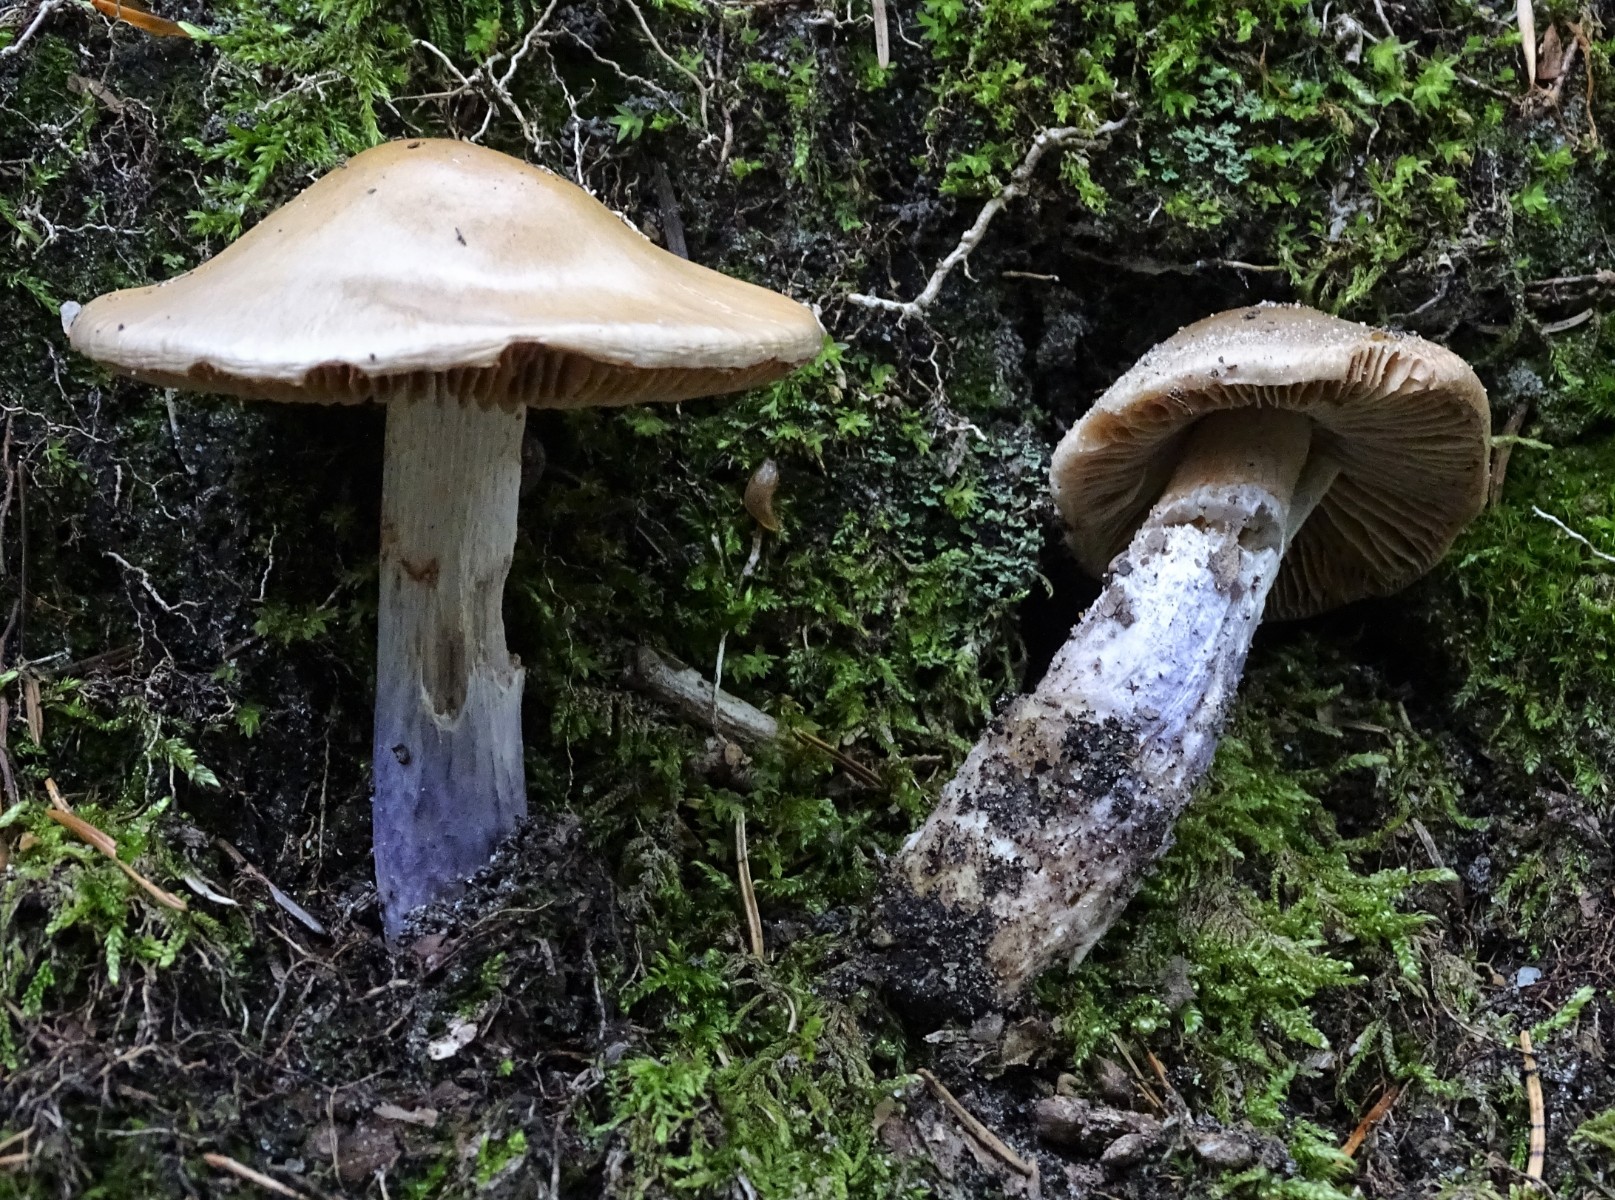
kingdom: Fungi
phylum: Basidiomycota
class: Agaricomycetes
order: Agaricales
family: Cortinariaceae
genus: Cortinarius
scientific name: Cortinarius stillatitius
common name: honningduftende slørhat
